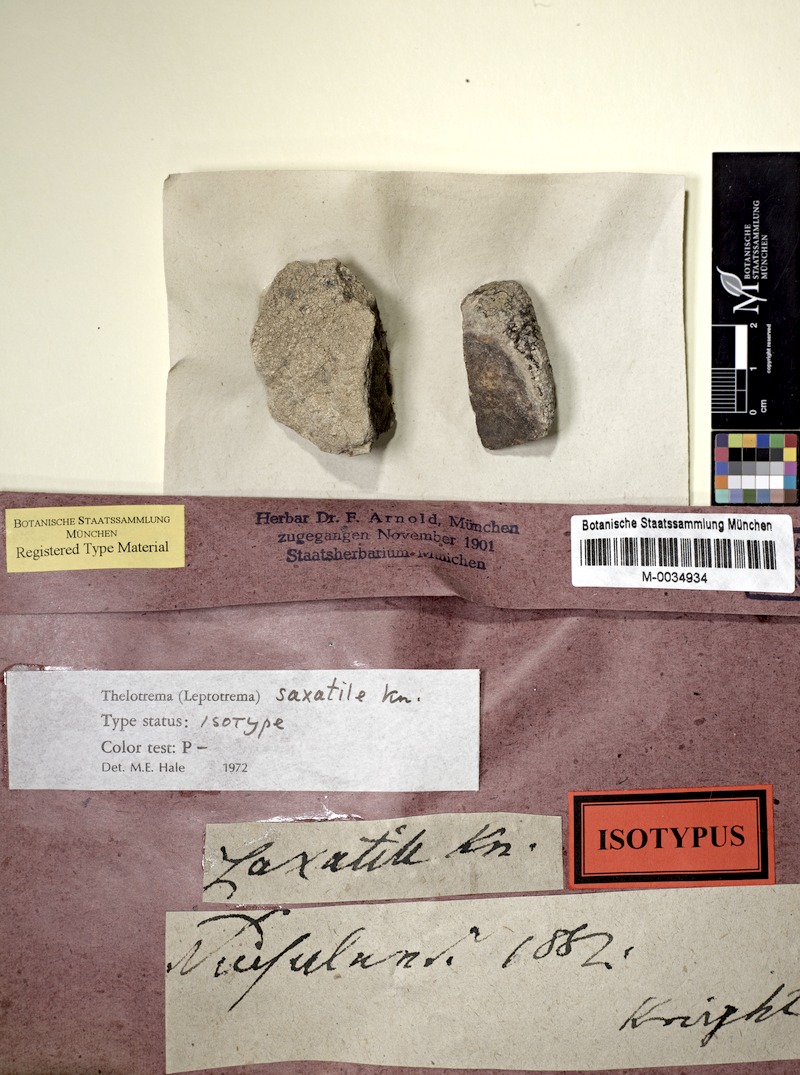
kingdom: Fungi
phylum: Ascomycota
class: Lecanoromycetes
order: Ostropales
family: Graphidaceae
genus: Thelotrema
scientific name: Thelotrema monosporum
